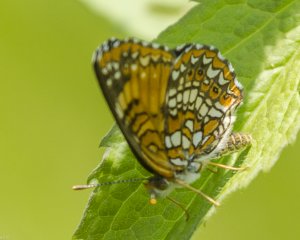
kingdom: Animalia
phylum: Arthropoda
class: Insecta
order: Lepidoptera
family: Nymphalidae
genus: Chlosyne
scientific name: Chlosyne harrisii
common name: Harris's Checkerspot
